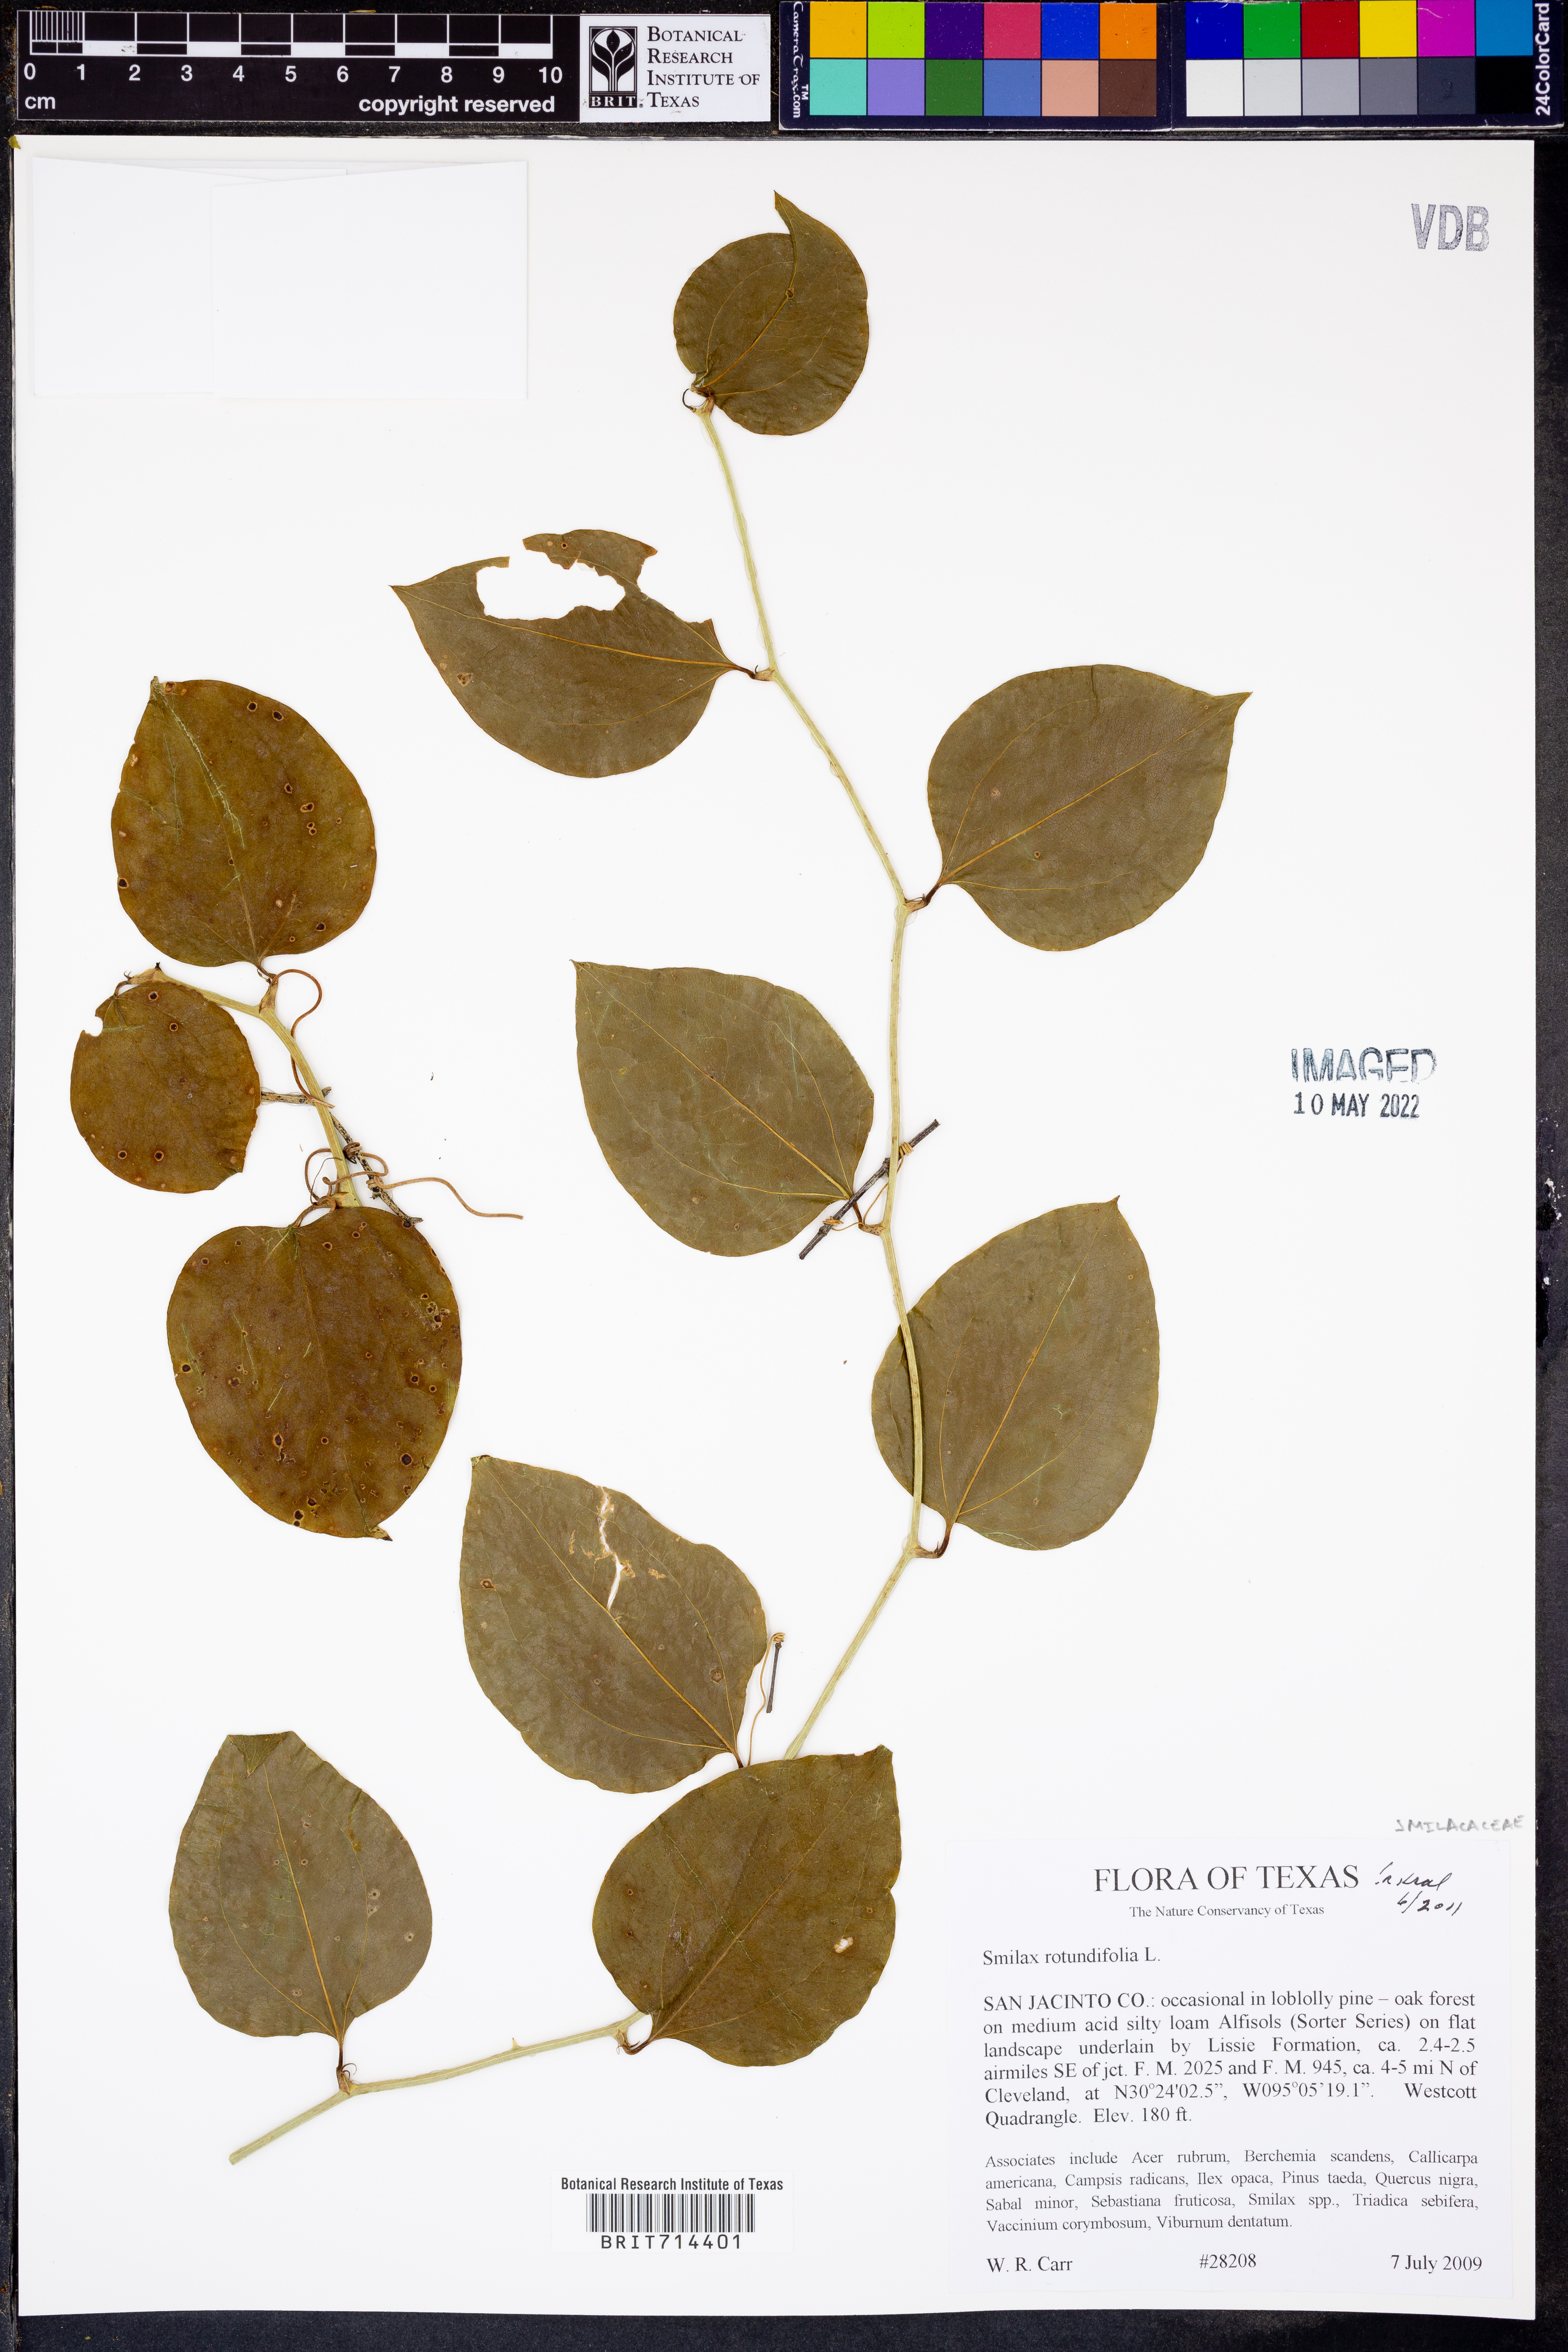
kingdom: Plantae
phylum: Tracheophyta
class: Liliopsida
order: Liliales
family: Smilacaceae
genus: Smilax
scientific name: Smilax rotundifolia
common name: Bullbriar
